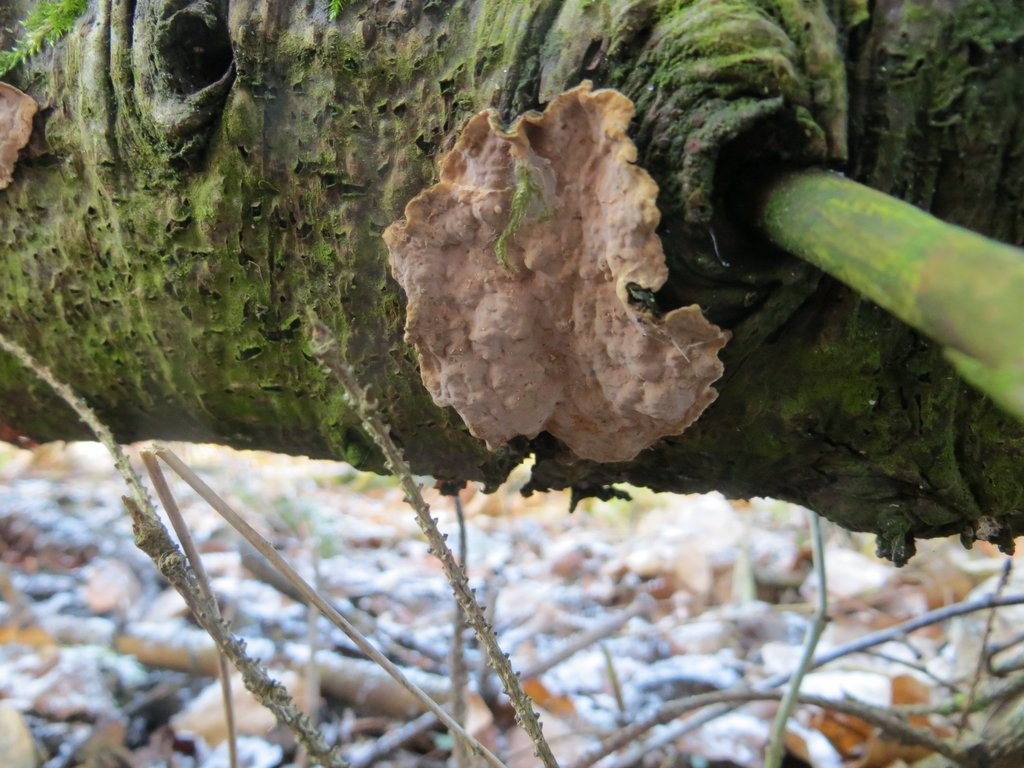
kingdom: Fungi
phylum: Basidiomycota
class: Agaricomycetes
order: Russulales
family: Echinodontiaceae
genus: Amylostereum
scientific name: Amylostereum chailletii
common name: gran-lædersvamp
